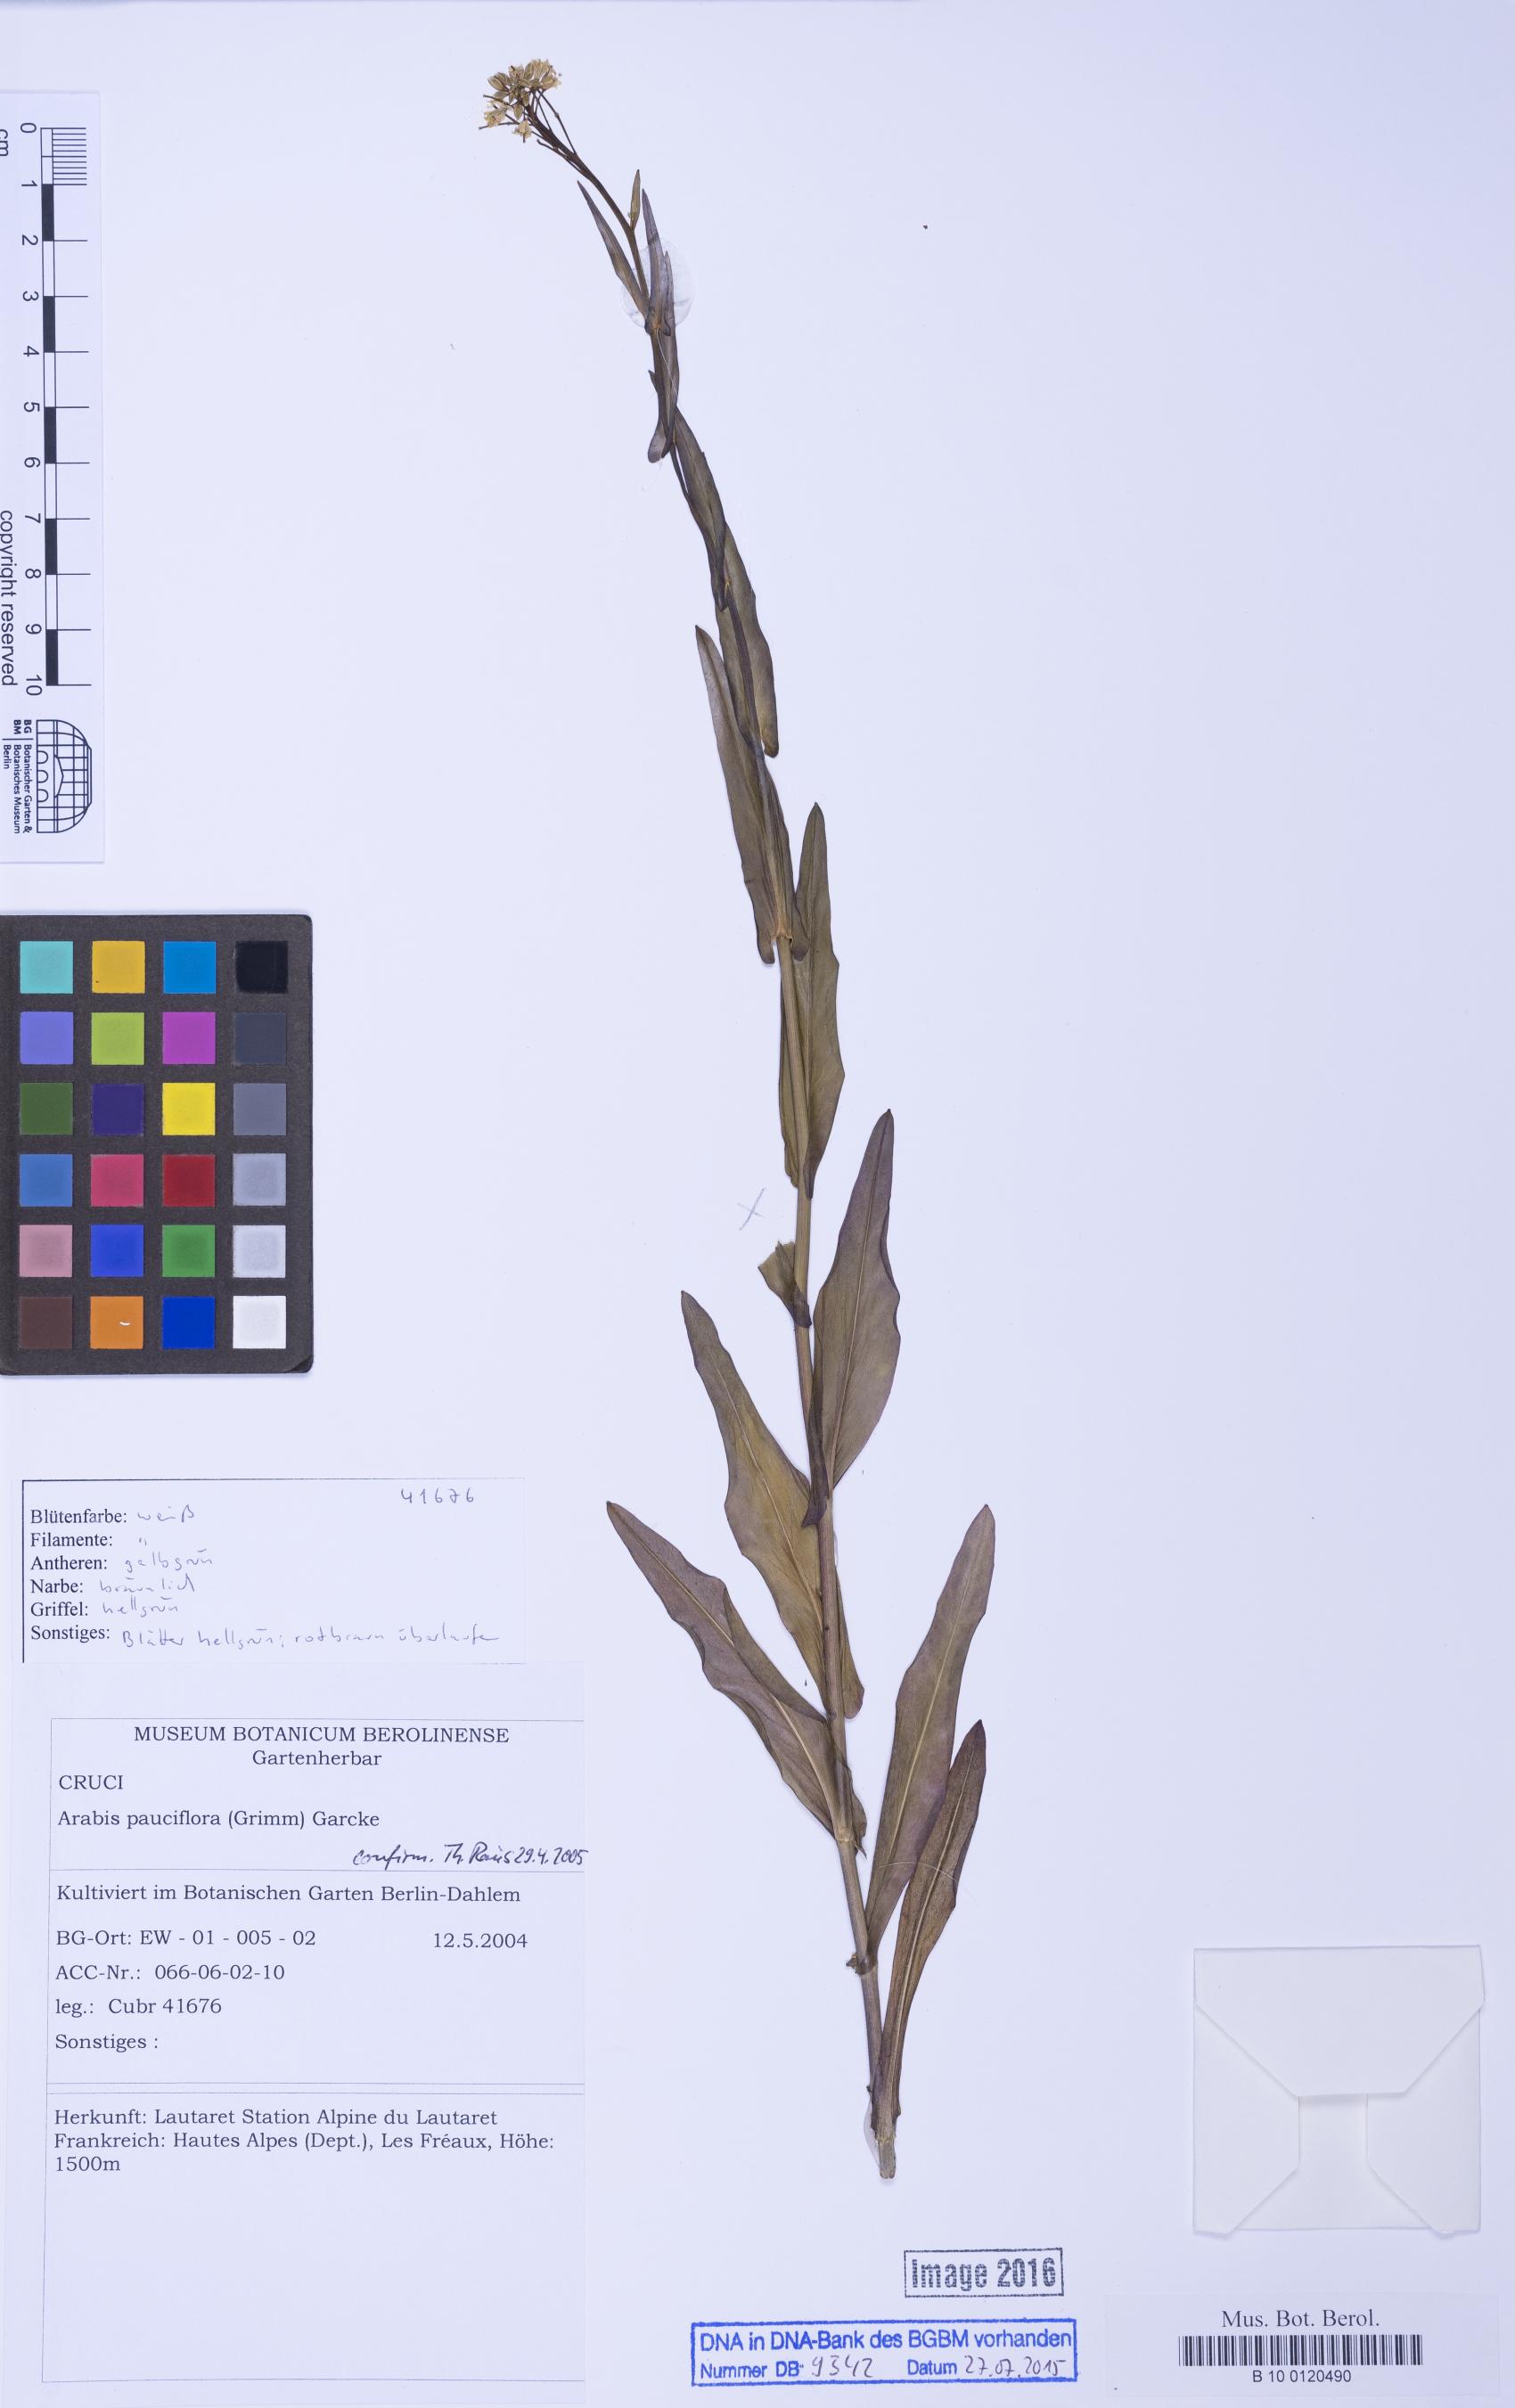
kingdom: Plantae
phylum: Tracheophyta
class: Magnoliopsida
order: Brassicales
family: Brassicaceae
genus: Fourraea
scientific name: Fourraea alpina
